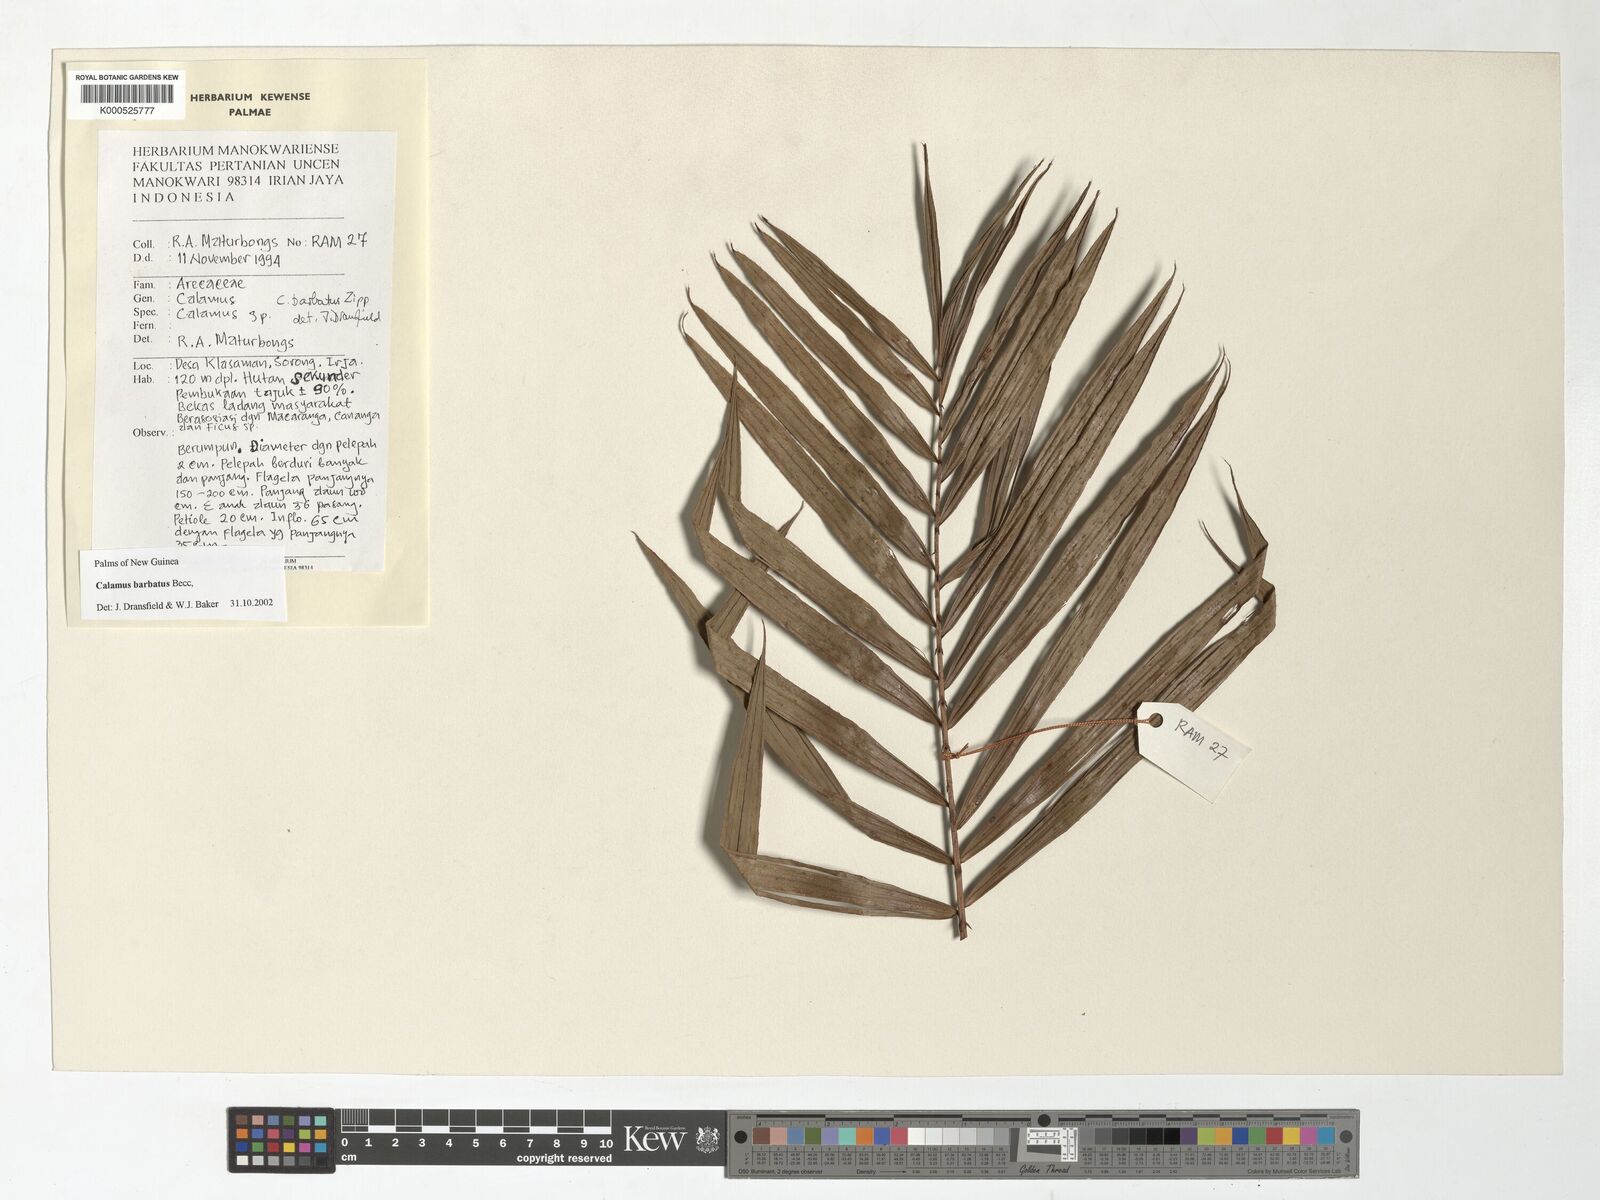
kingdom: Plantae
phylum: Tracheophyta
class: Liliopsida
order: Arecales
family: Arecaceae
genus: Calamus
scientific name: Calamus
